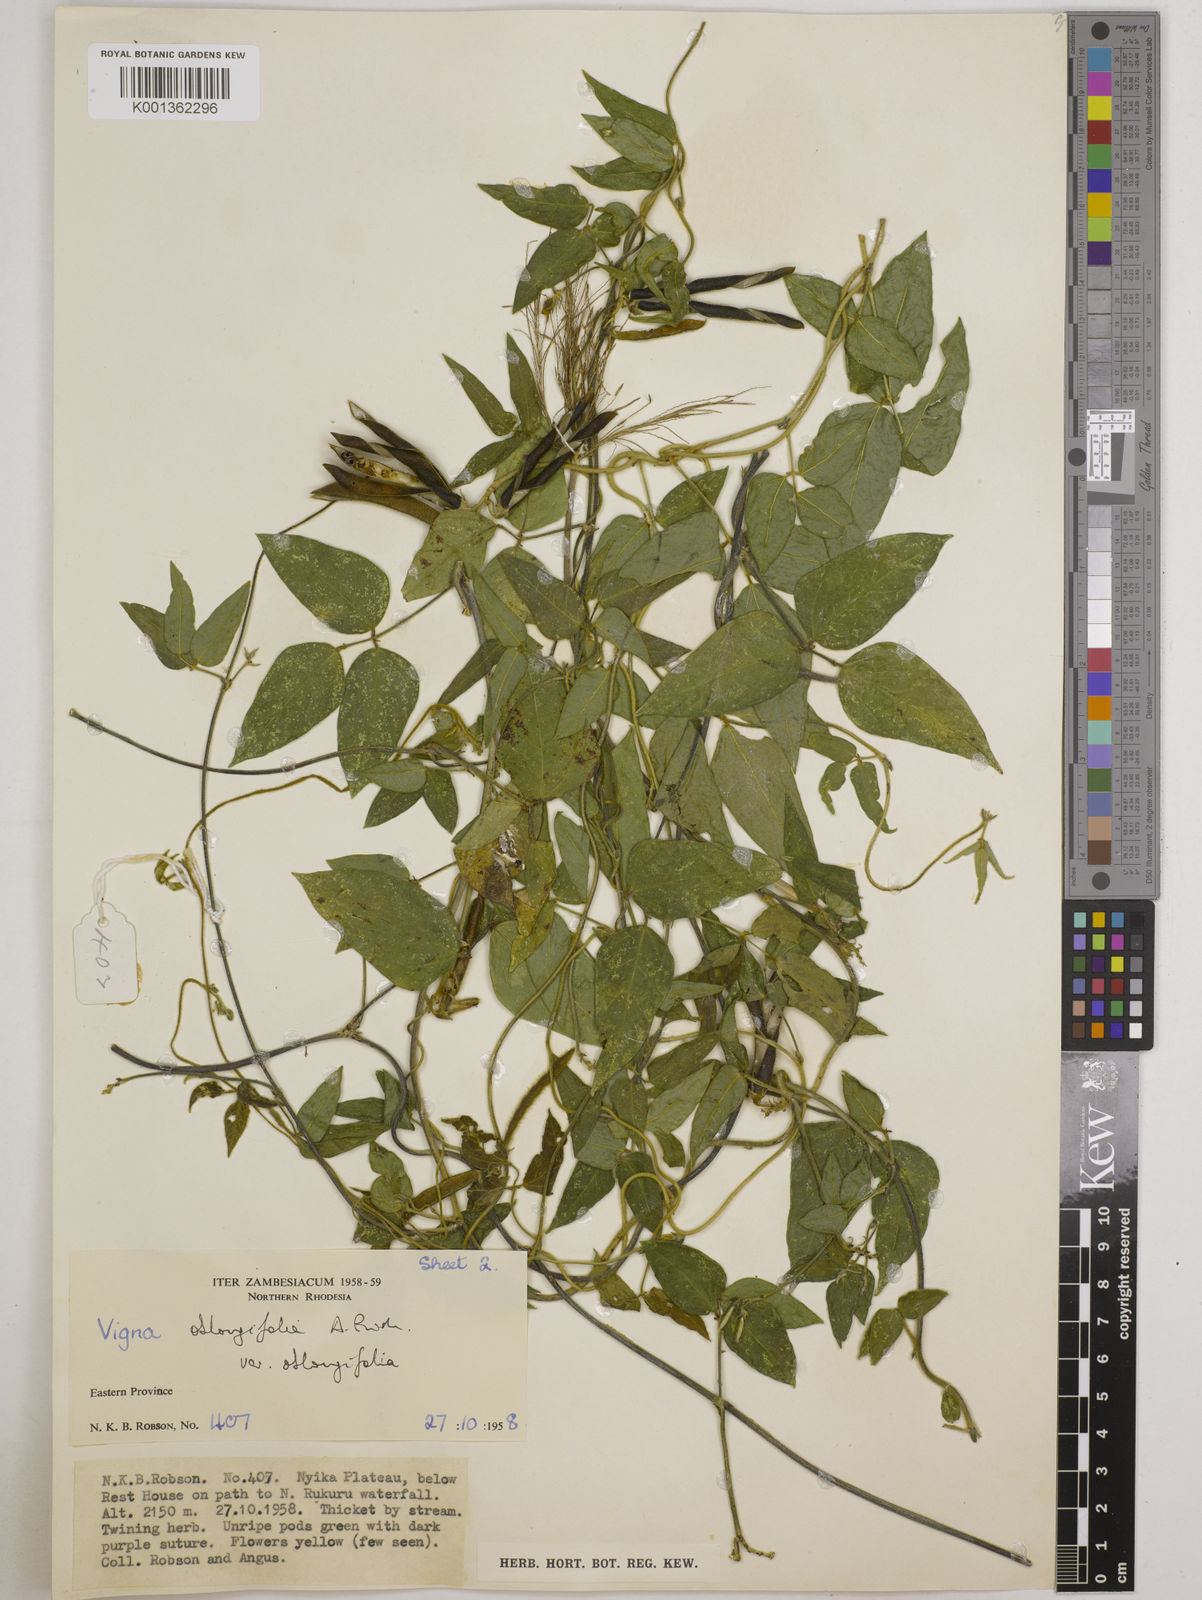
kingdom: Plantae
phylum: Tracheophyta
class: Magnoliopsida
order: Fabales
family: Fabaceae
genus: Vigna
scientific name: Vigna oblongifolia
